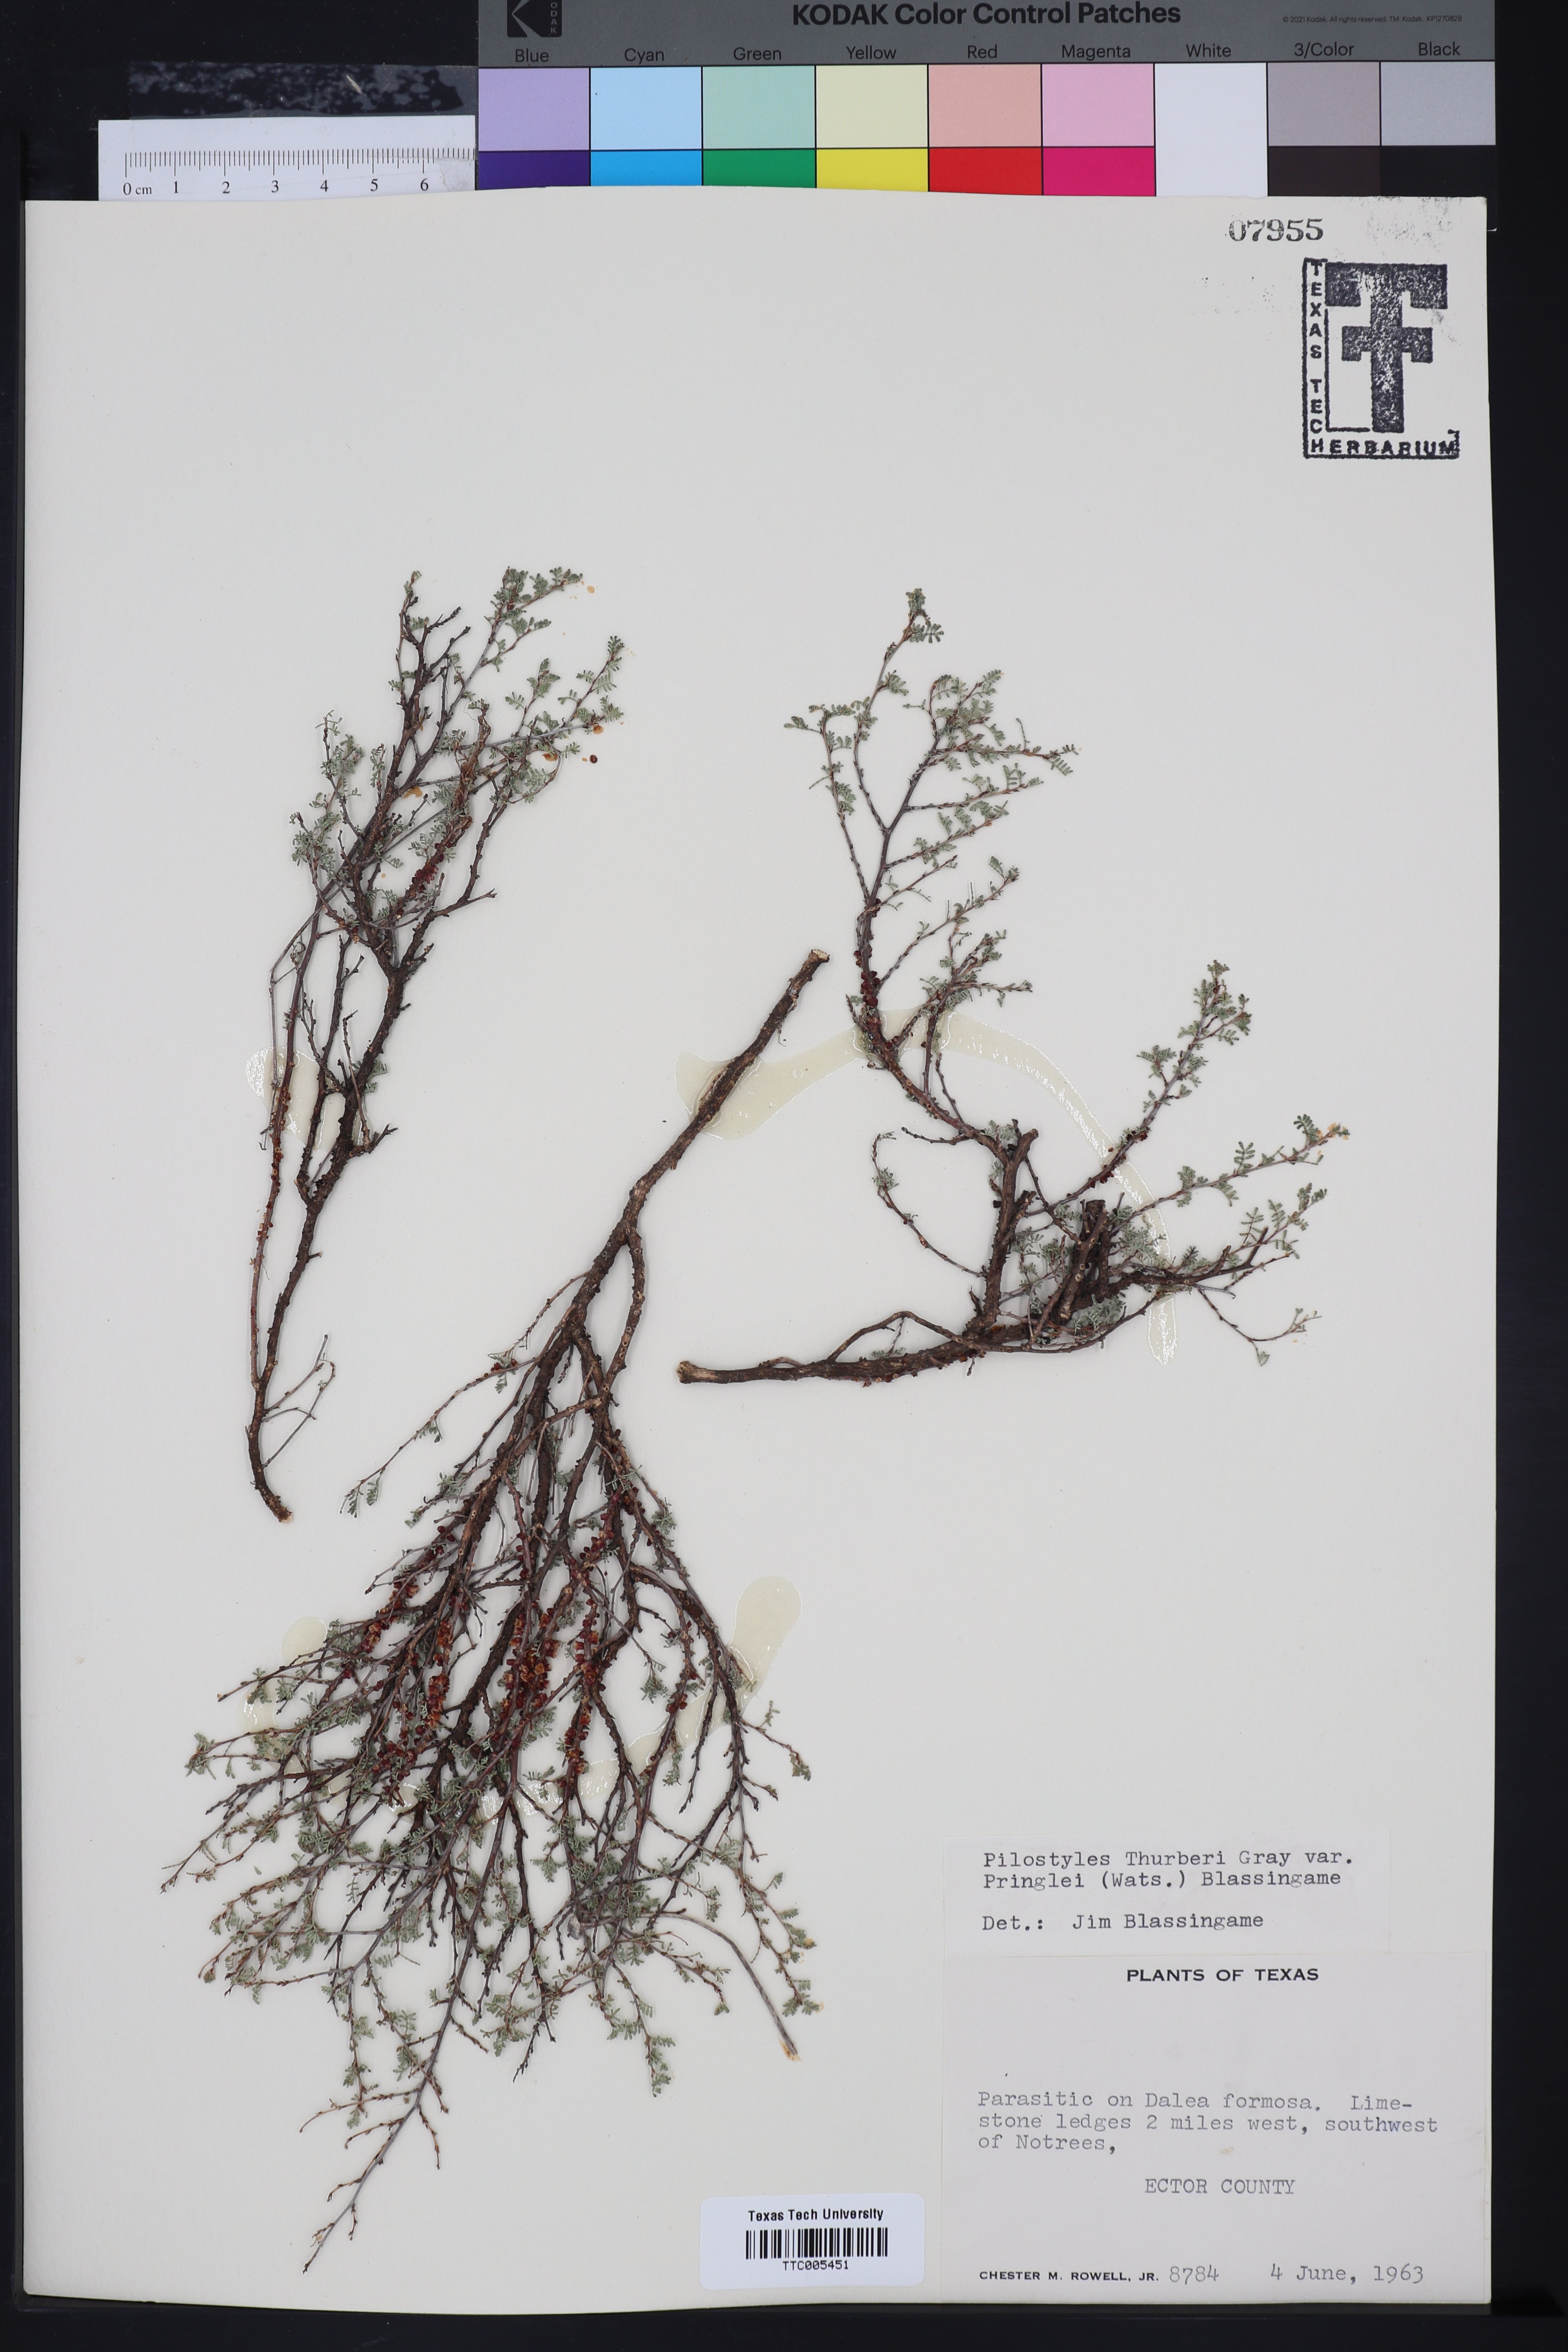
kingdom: Plantae
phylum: Tracheophyta
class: Magnoliopsida
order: Cucurbitales
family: Apodanthaceae
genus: Pilostyles
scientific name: Pilostyles thurberi
